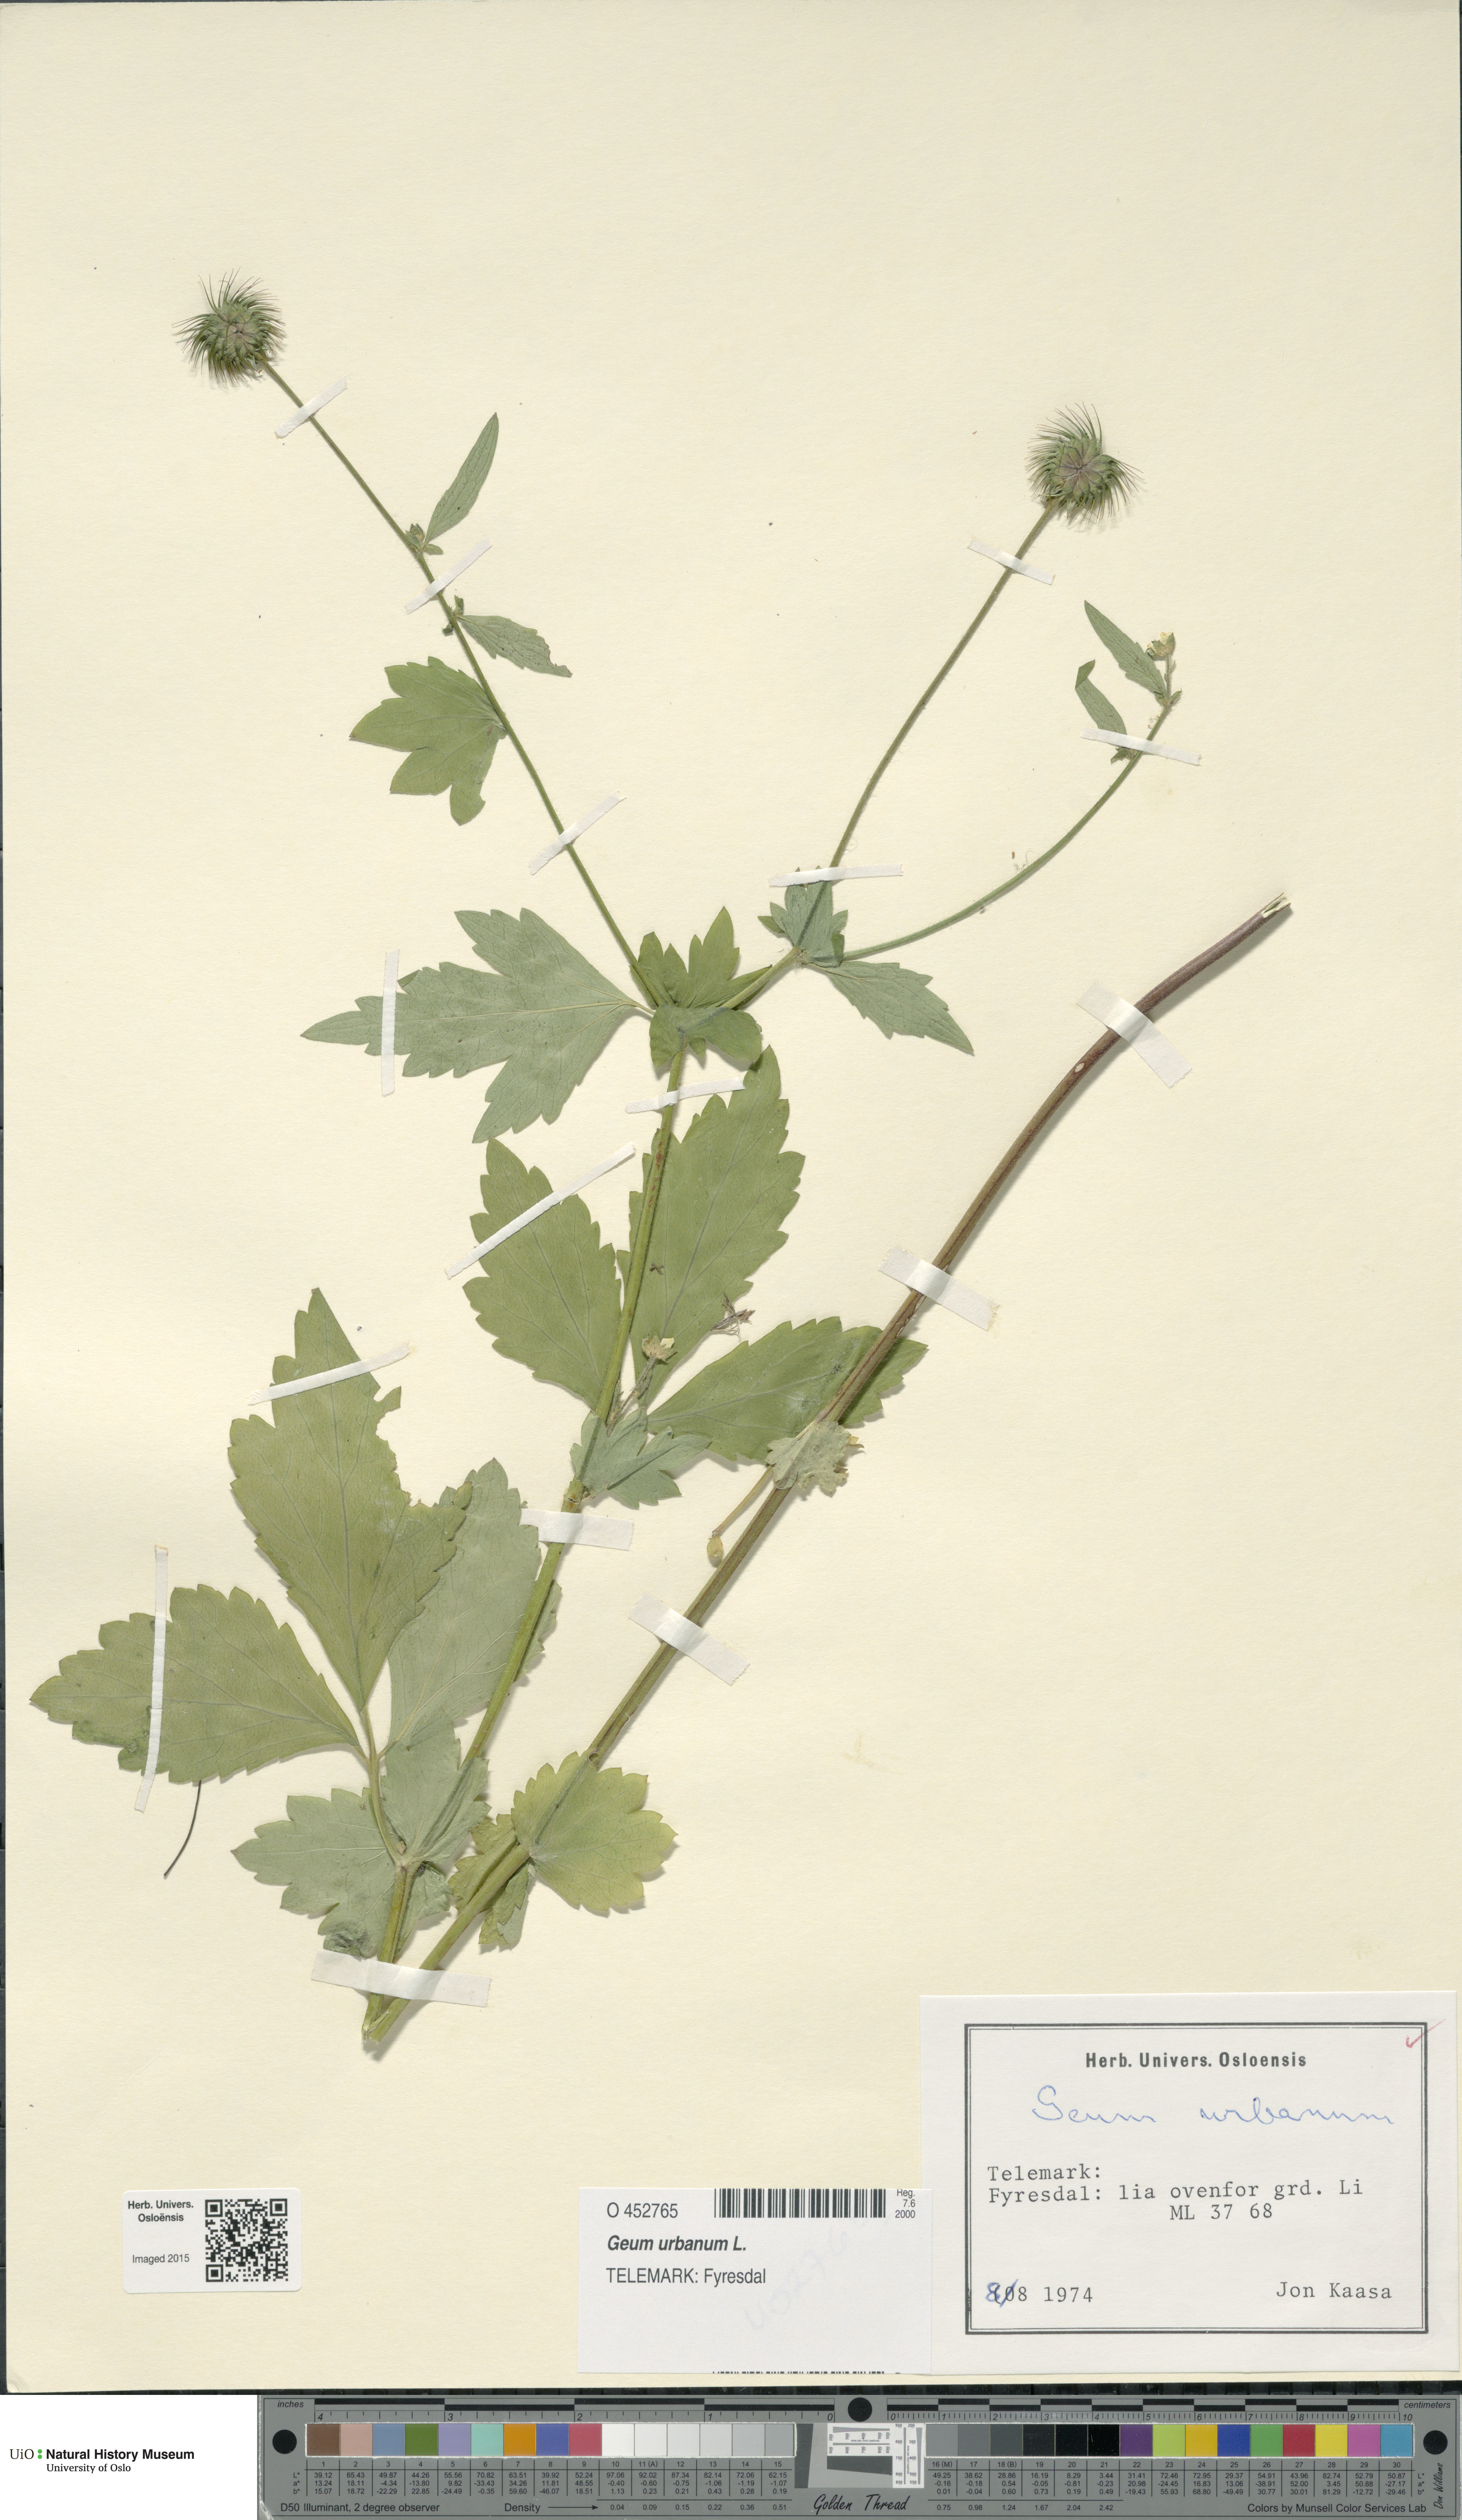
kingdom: Plantae
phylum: Tracheophyta
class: Magnoliopsida
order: Rosales
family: Rosaceae
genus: Geum
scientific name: Geum urbanum
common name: Wood avens
